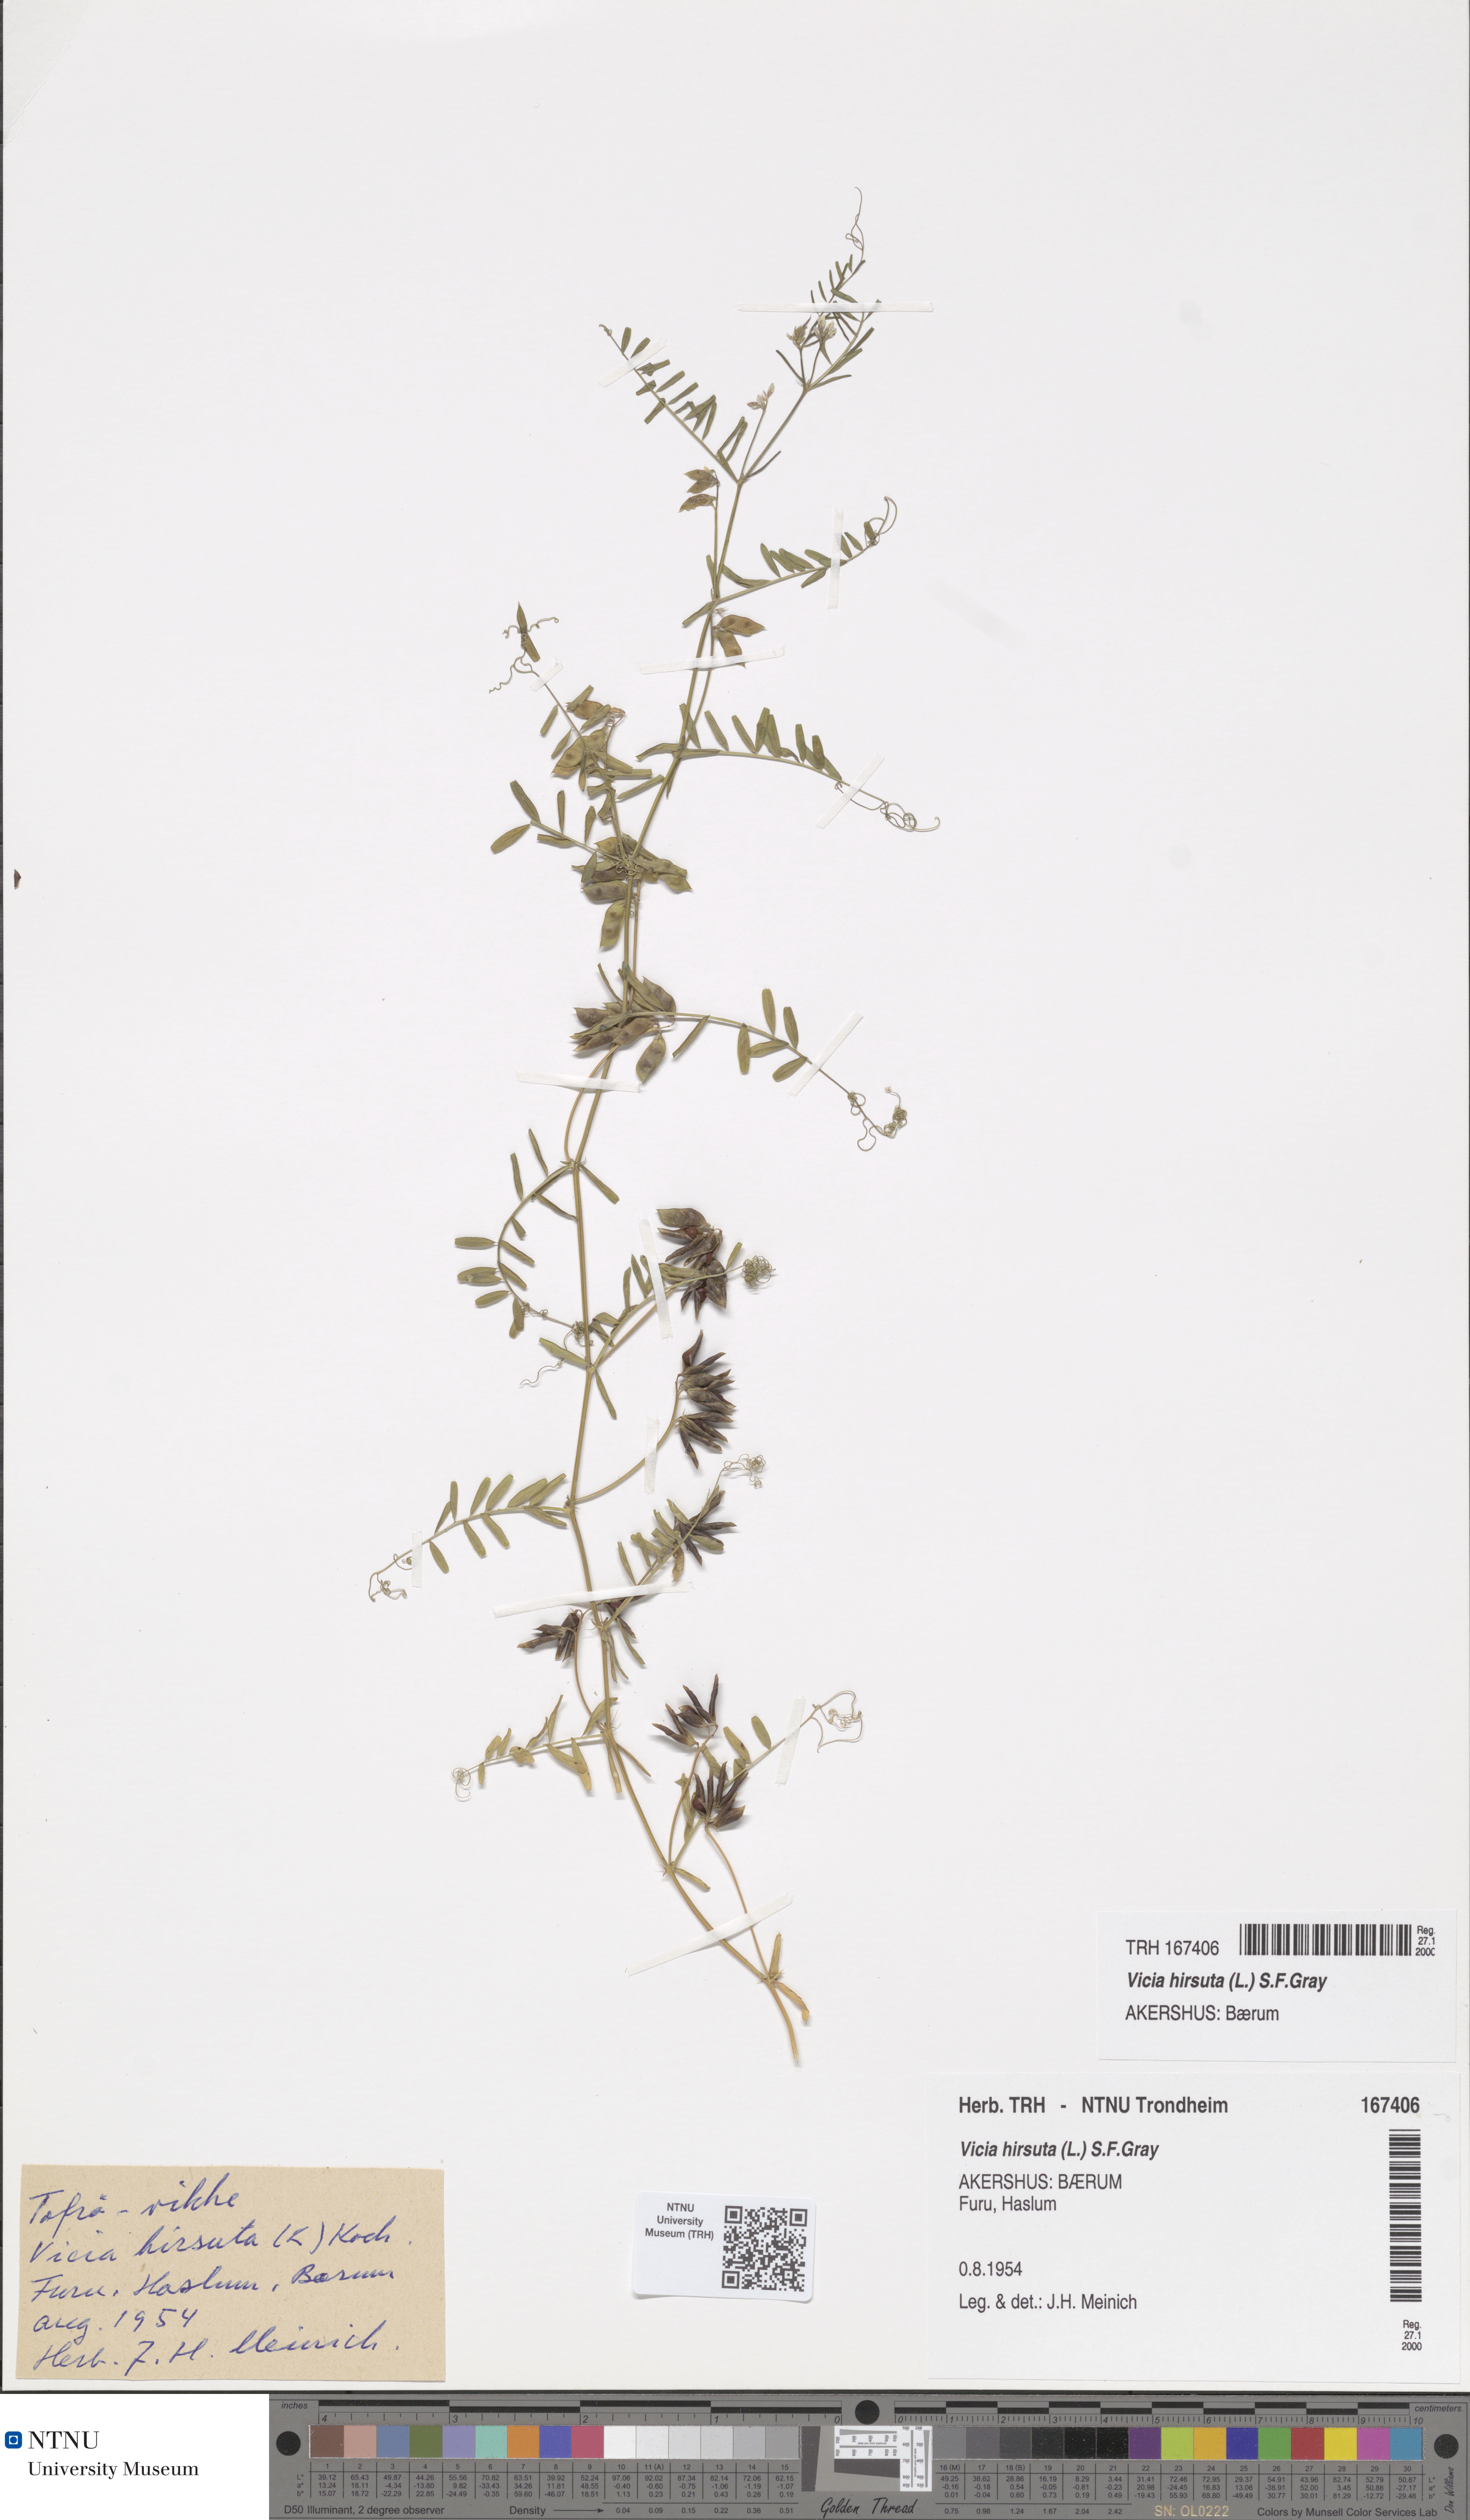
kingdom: Plantae
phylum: Tracheophyta
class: Magnoliopsida
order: Fabales
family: Fabaceae
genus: Vicia
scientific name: Vicia hirsuta
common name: Tiny vetch
